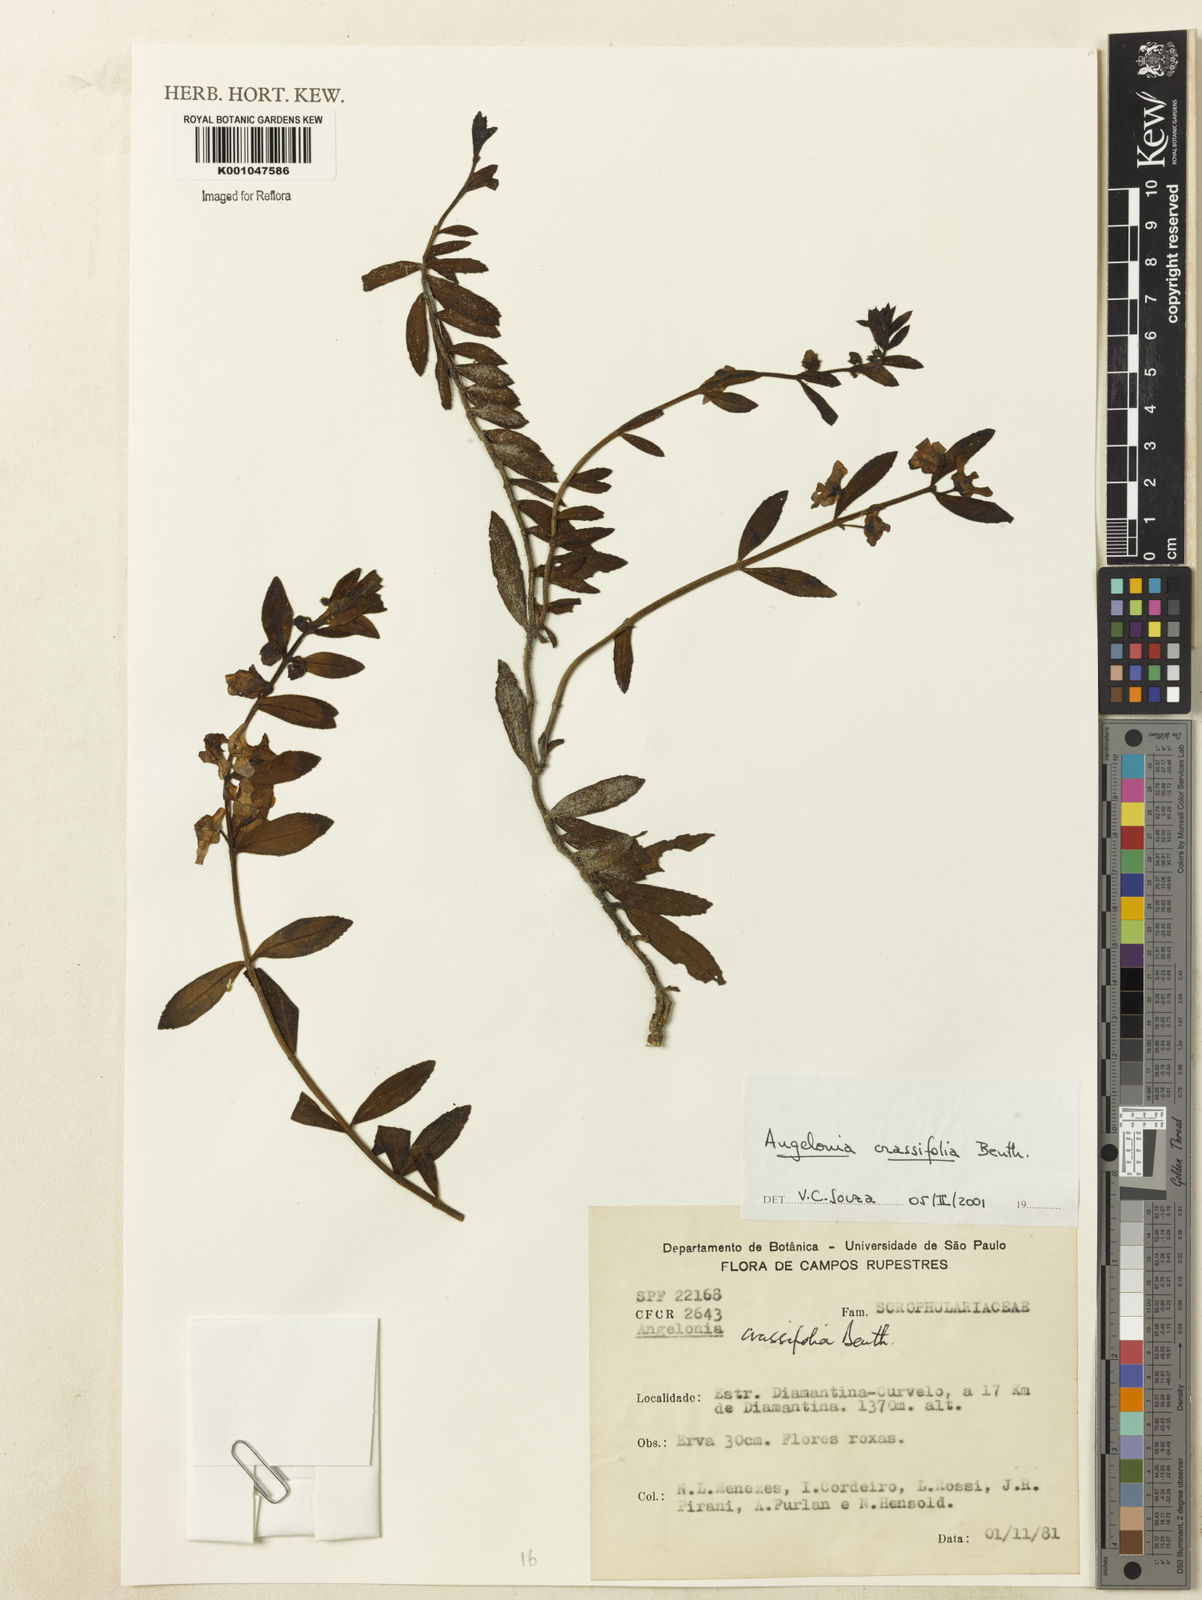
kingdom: Plantae
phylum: Tracheophyta
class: Magnoliopsida
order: Lamiales
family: Plantaginaceae
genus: Angelonia
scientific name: Angelonia crassifolia
